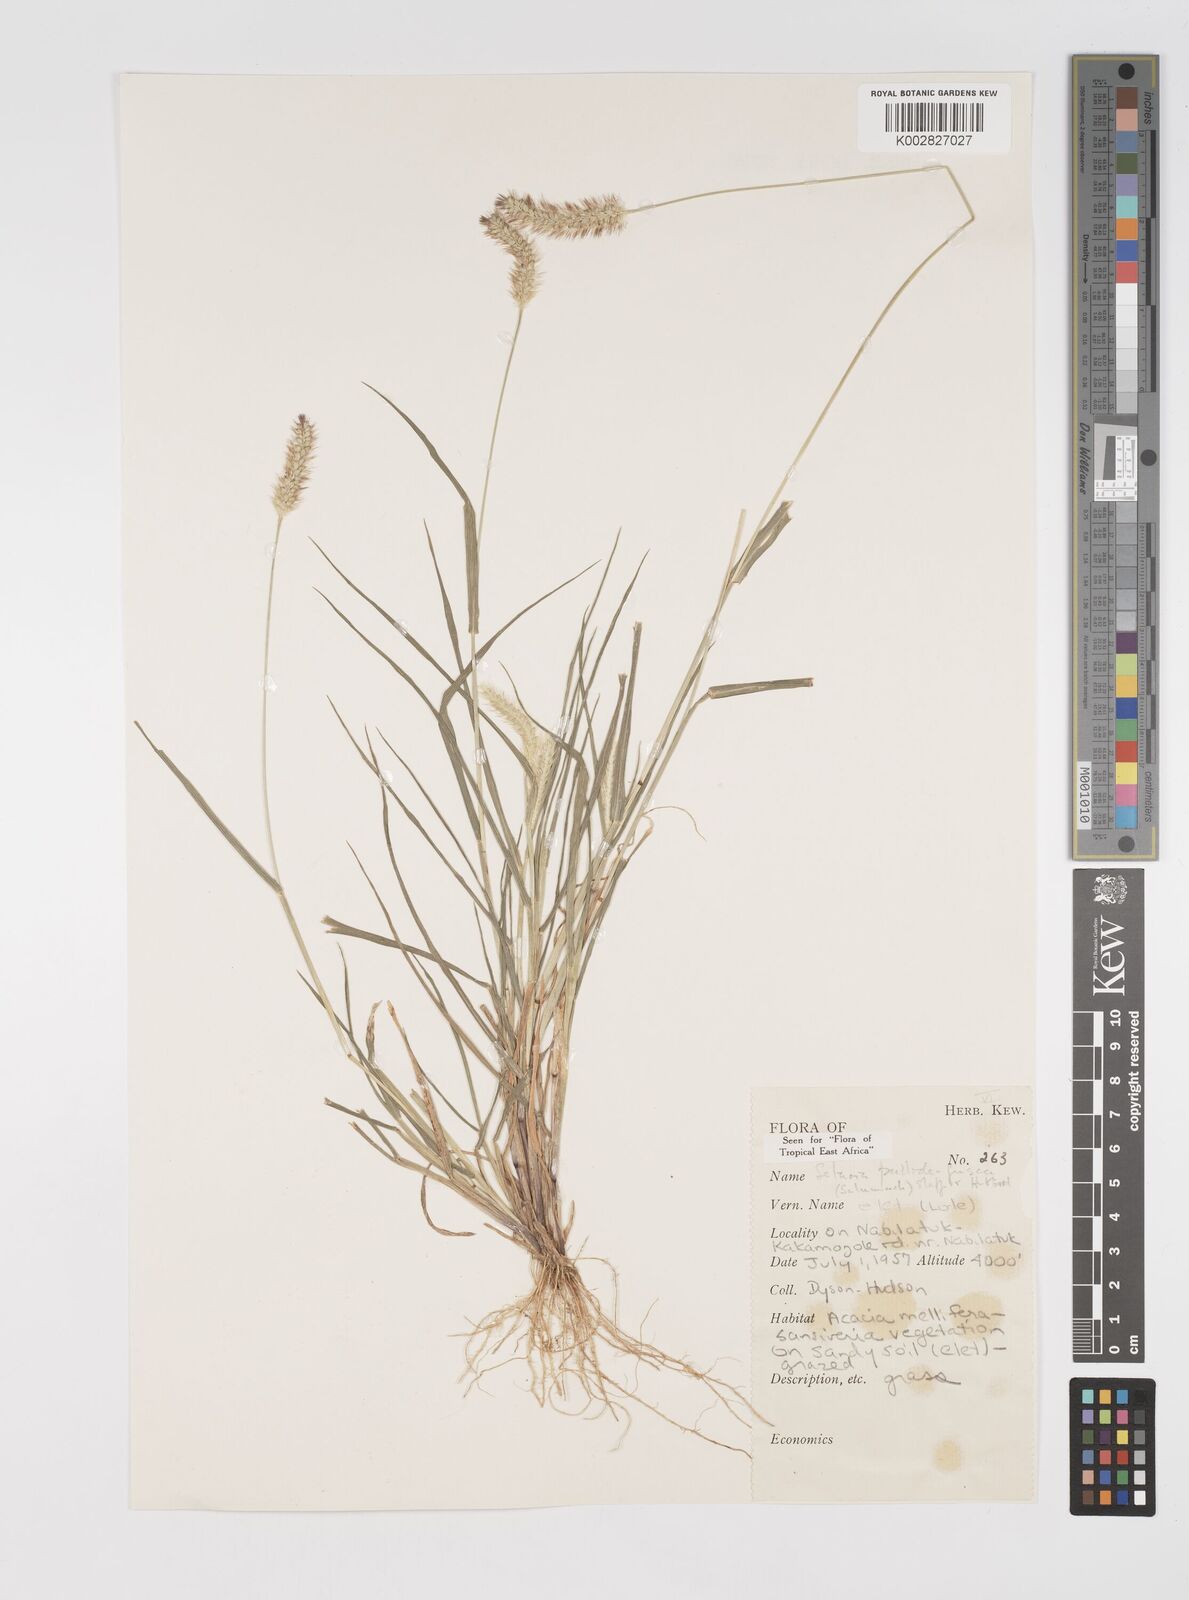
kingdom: Plantae
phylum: Tracheophyta
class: Liliopsida
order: Poales
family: Poaceae
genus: Setaria
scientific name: Setaria pumila
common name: Yellow bristle-grass
